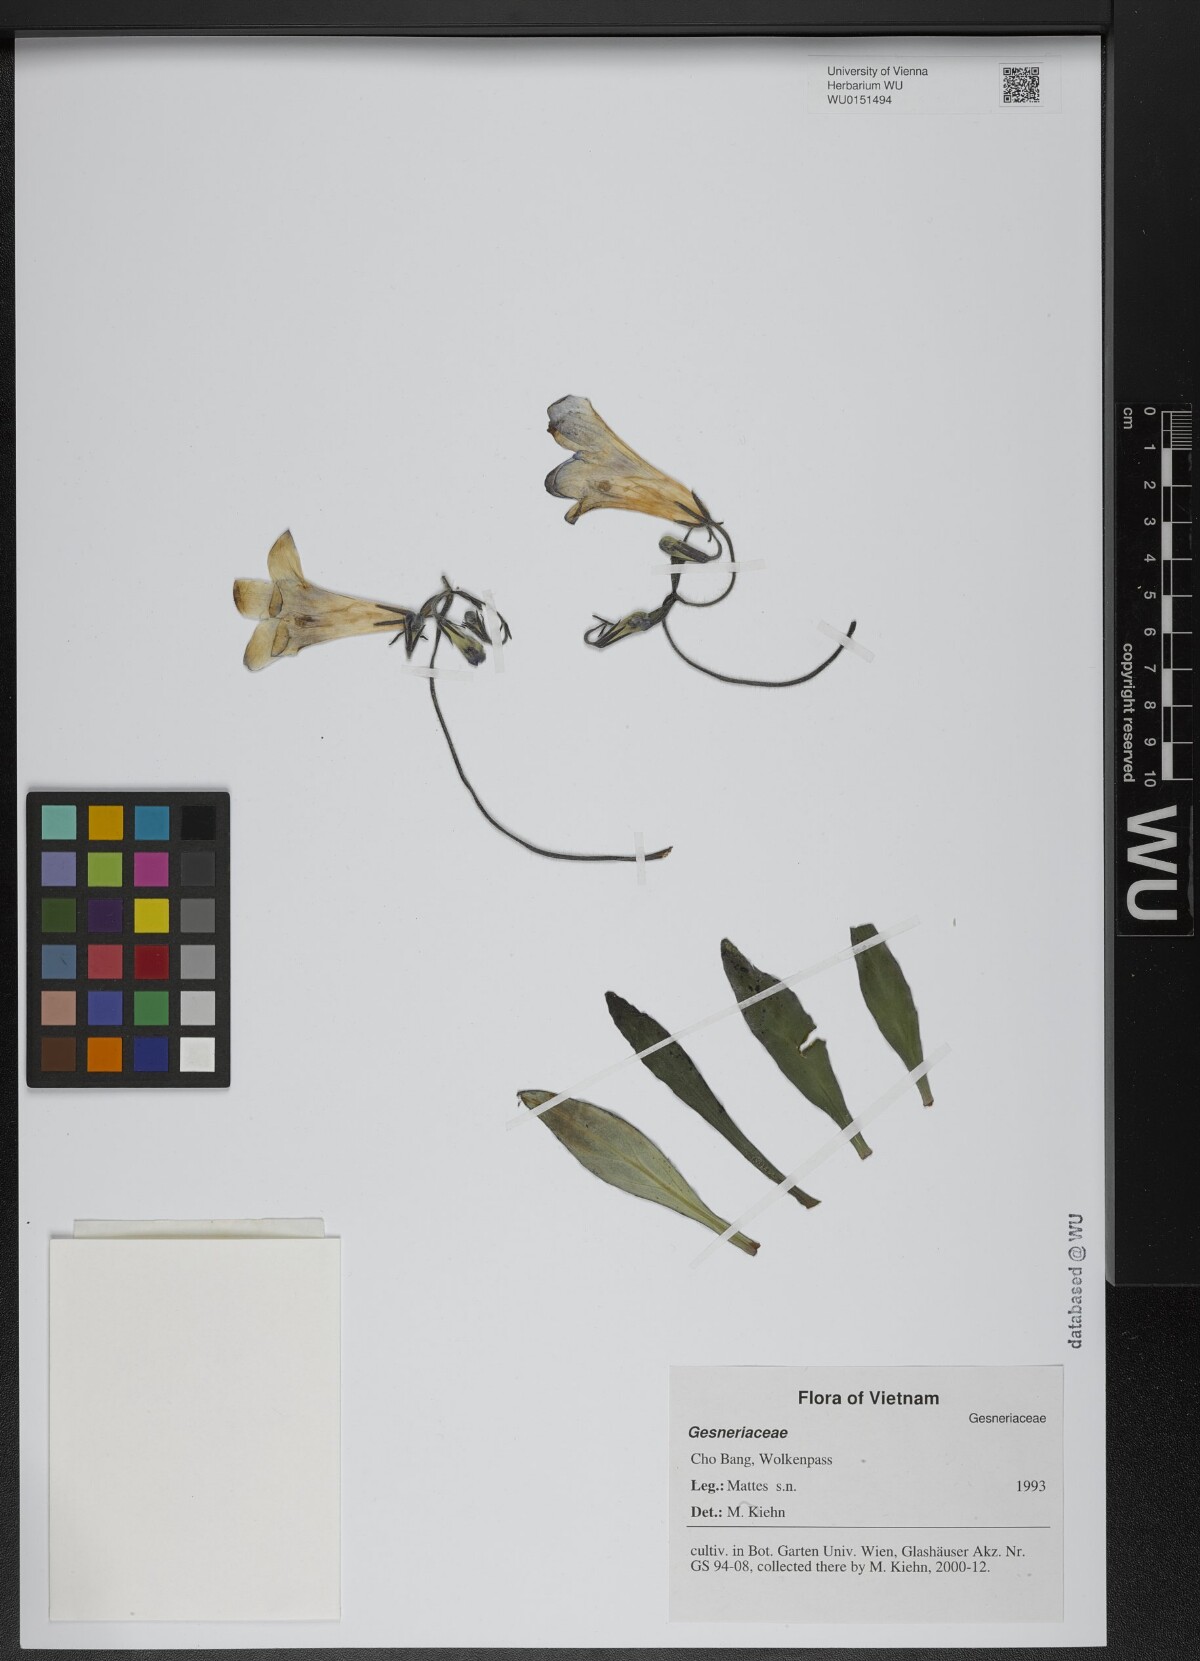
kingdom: Plantae
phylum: Tracheophyta
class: Magnoliopsida
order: Lamiales
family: Gesneriaceae
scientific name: Gesneriaceae
